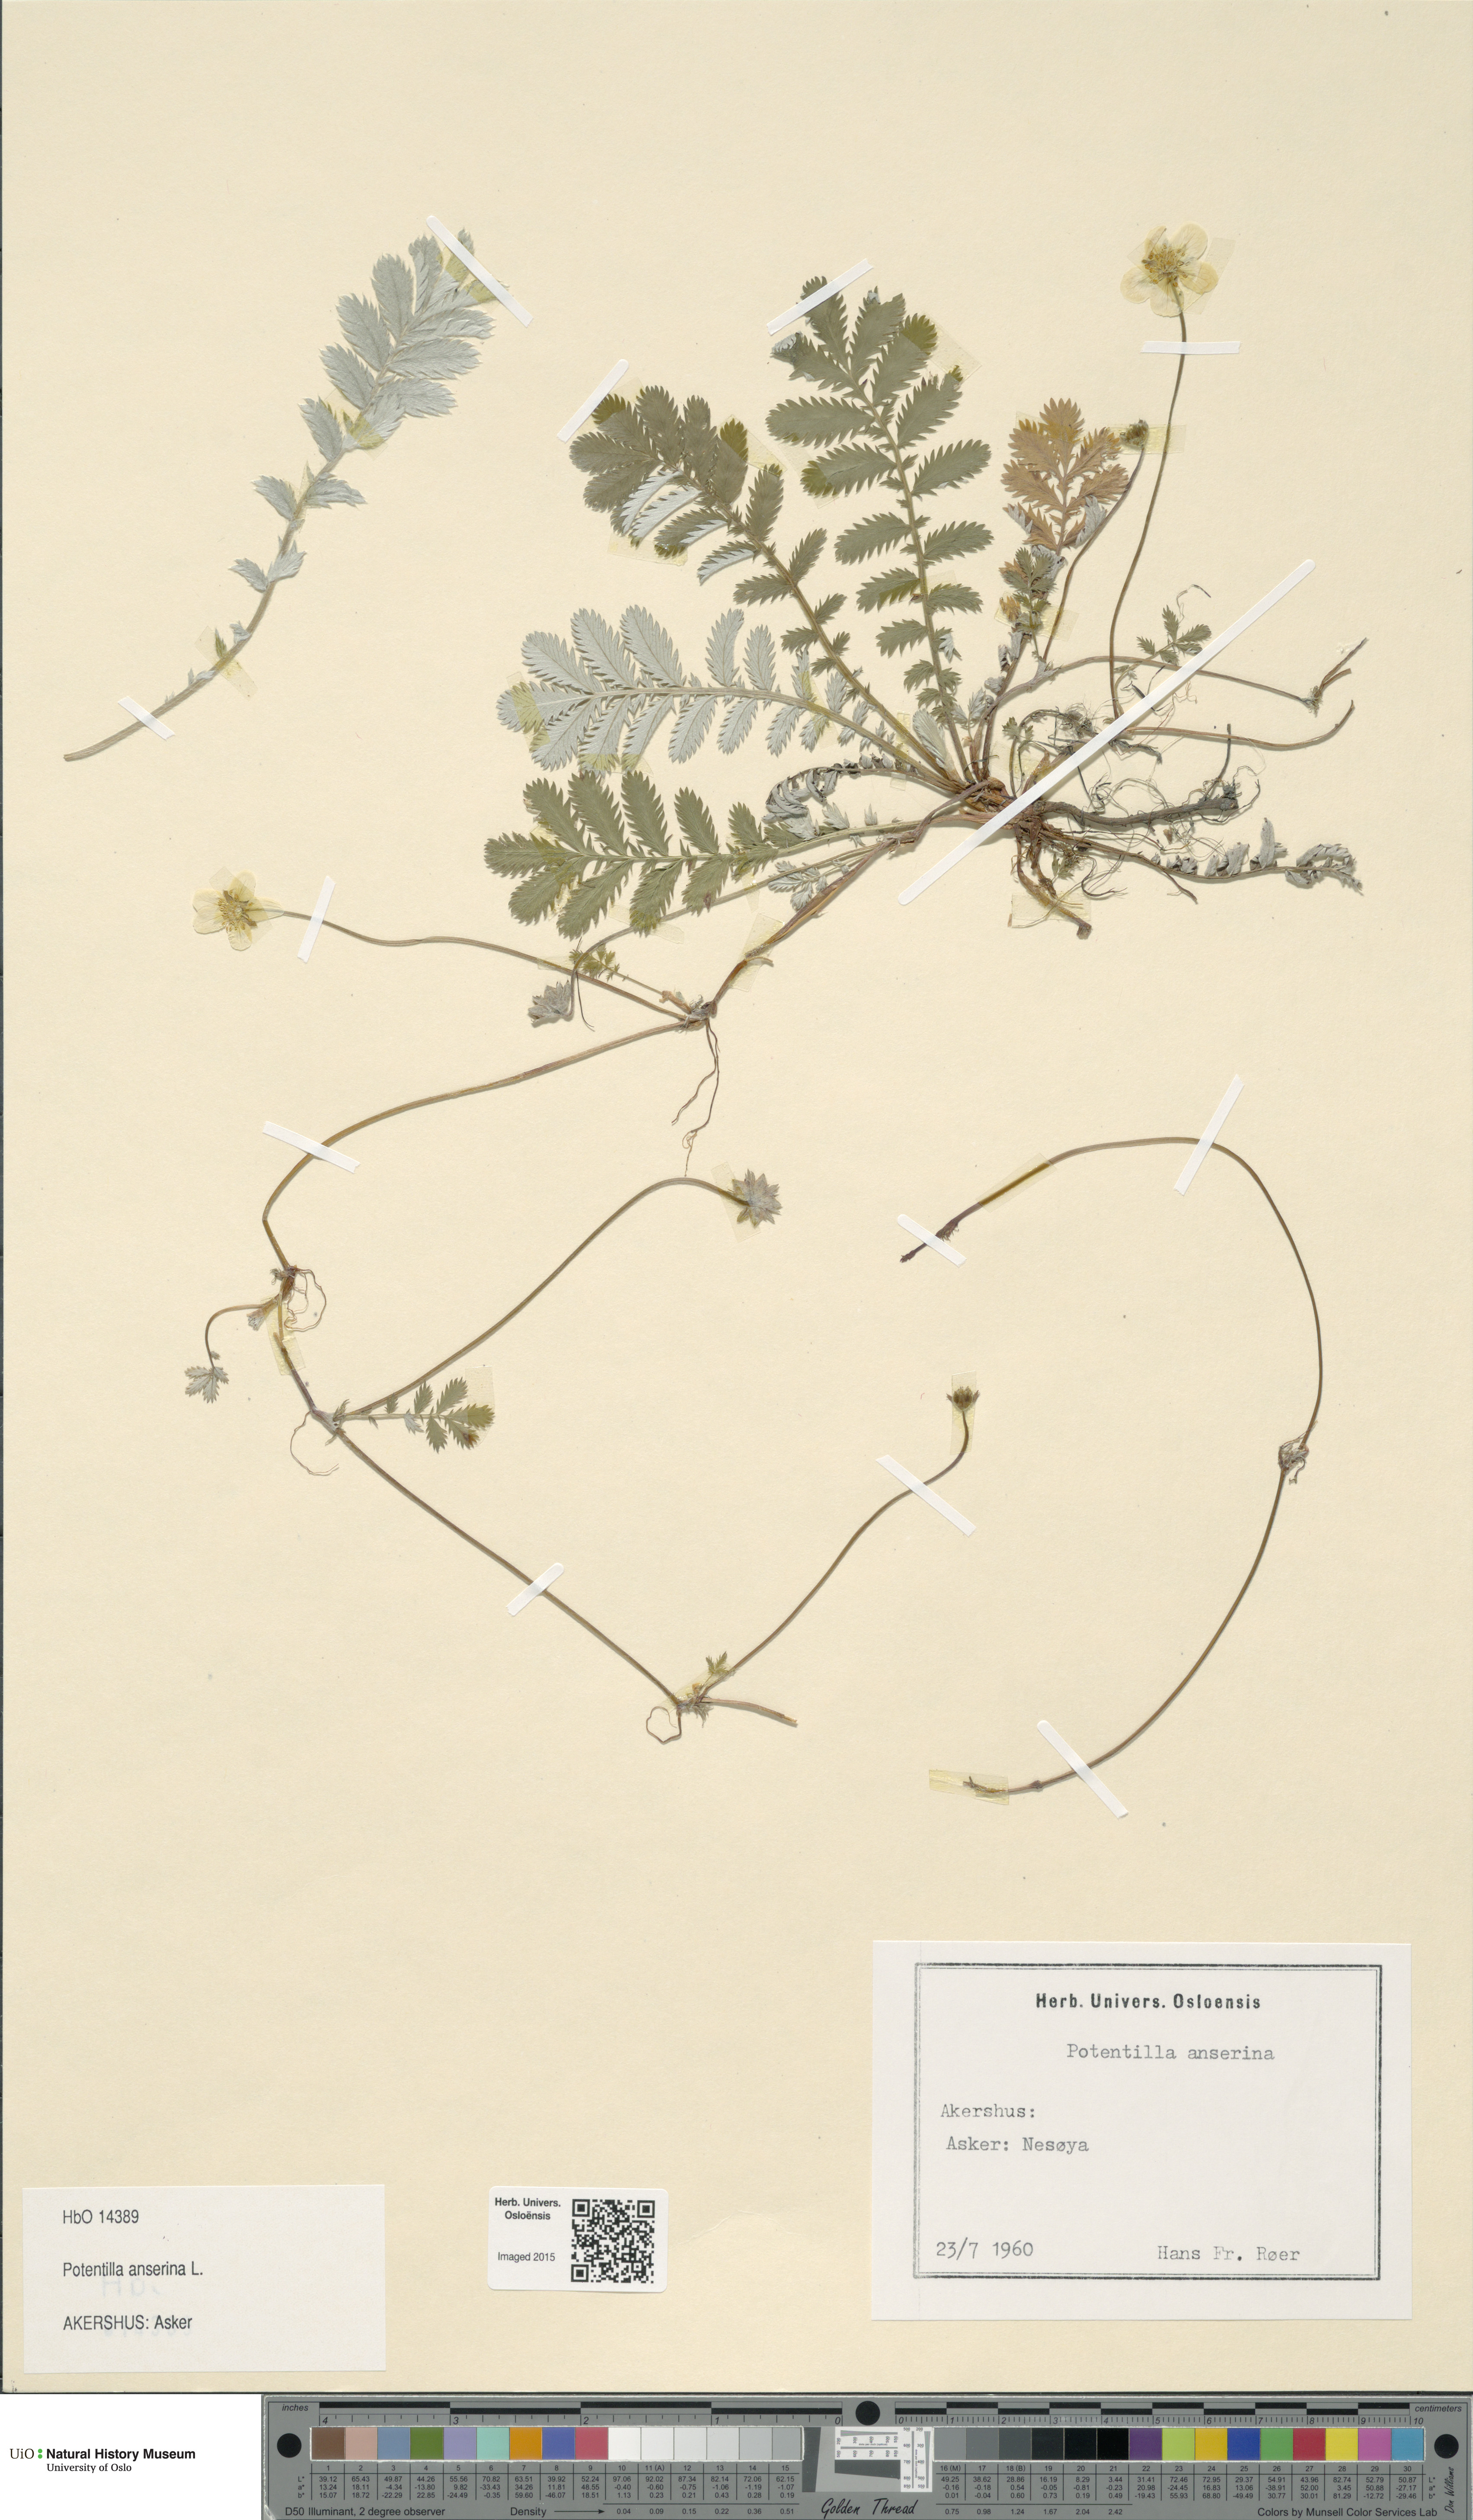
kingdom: Plantae
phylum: Tracheophyta
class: Magnoliopsida
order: Rosales
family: Rosaceae
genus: Argentina
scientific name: Argentina anserina
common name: Common silverweed
